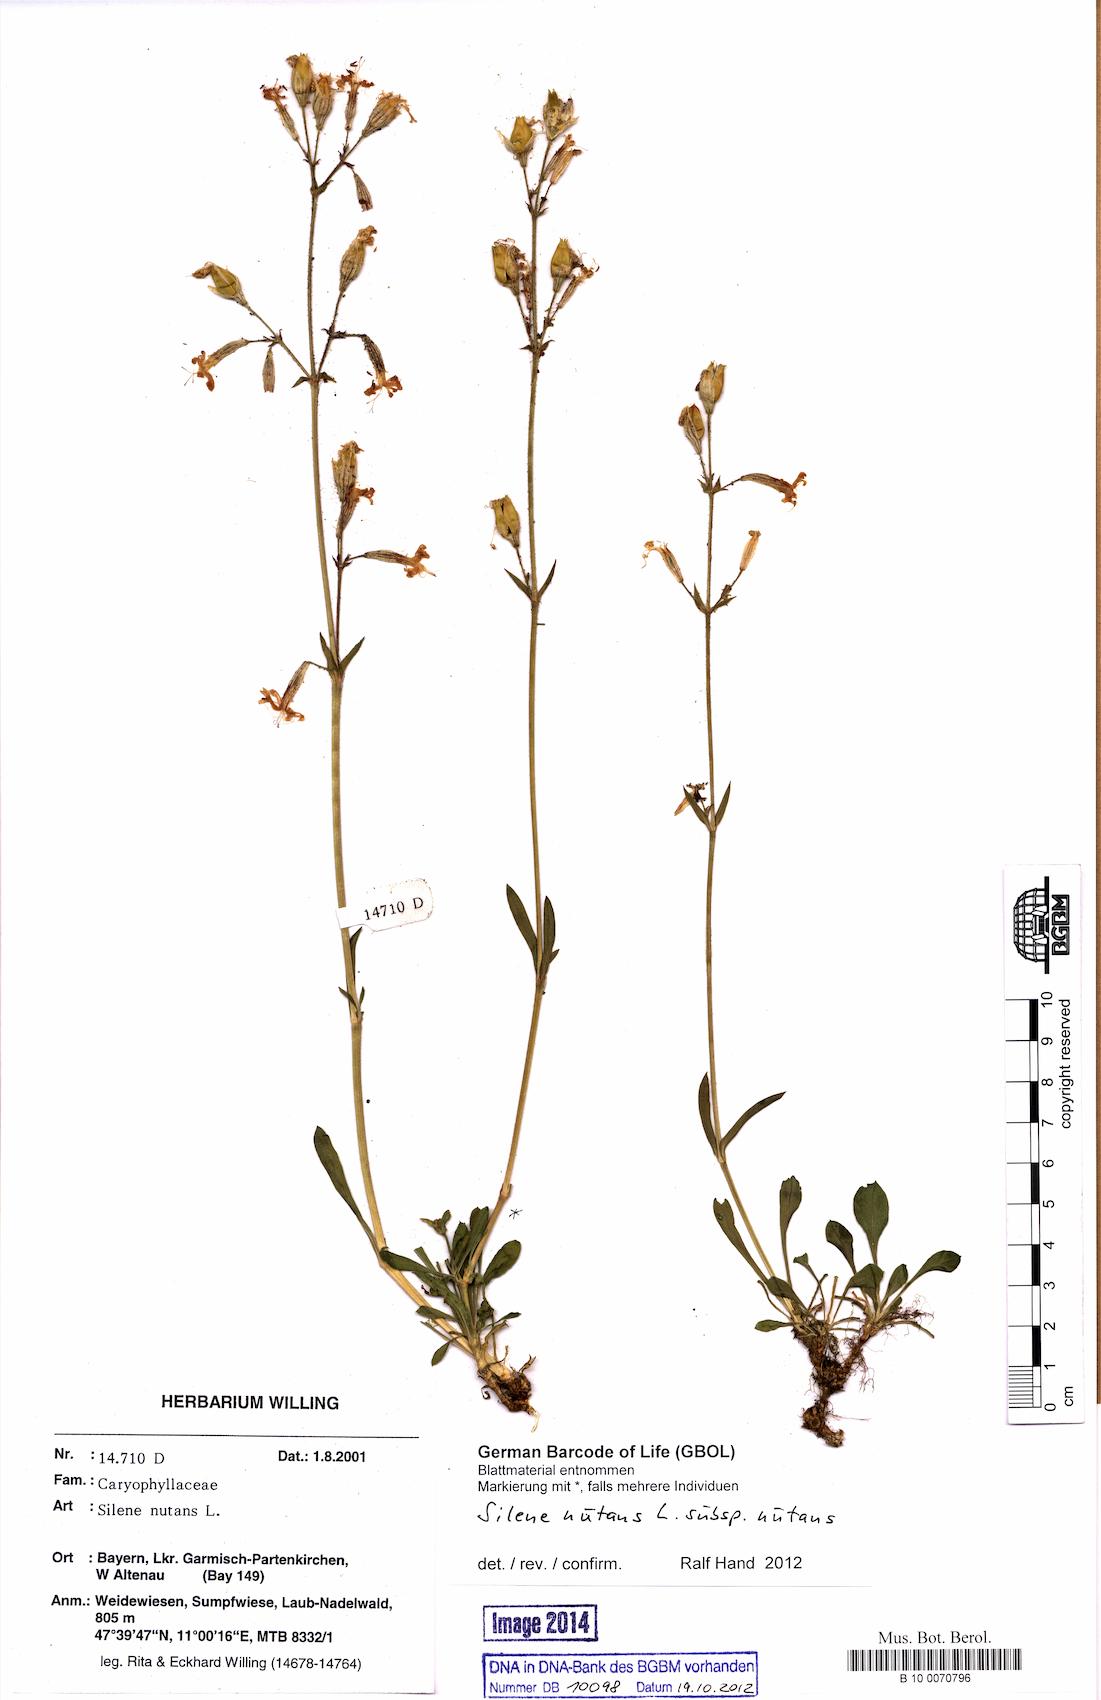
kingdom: Plantae
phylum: Tracheophyta
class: Magnoliopsida
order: Caryophyllales
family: Caryophyllaceae
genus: Silene
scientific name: Silene nutans
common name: Nottingham catchfly
